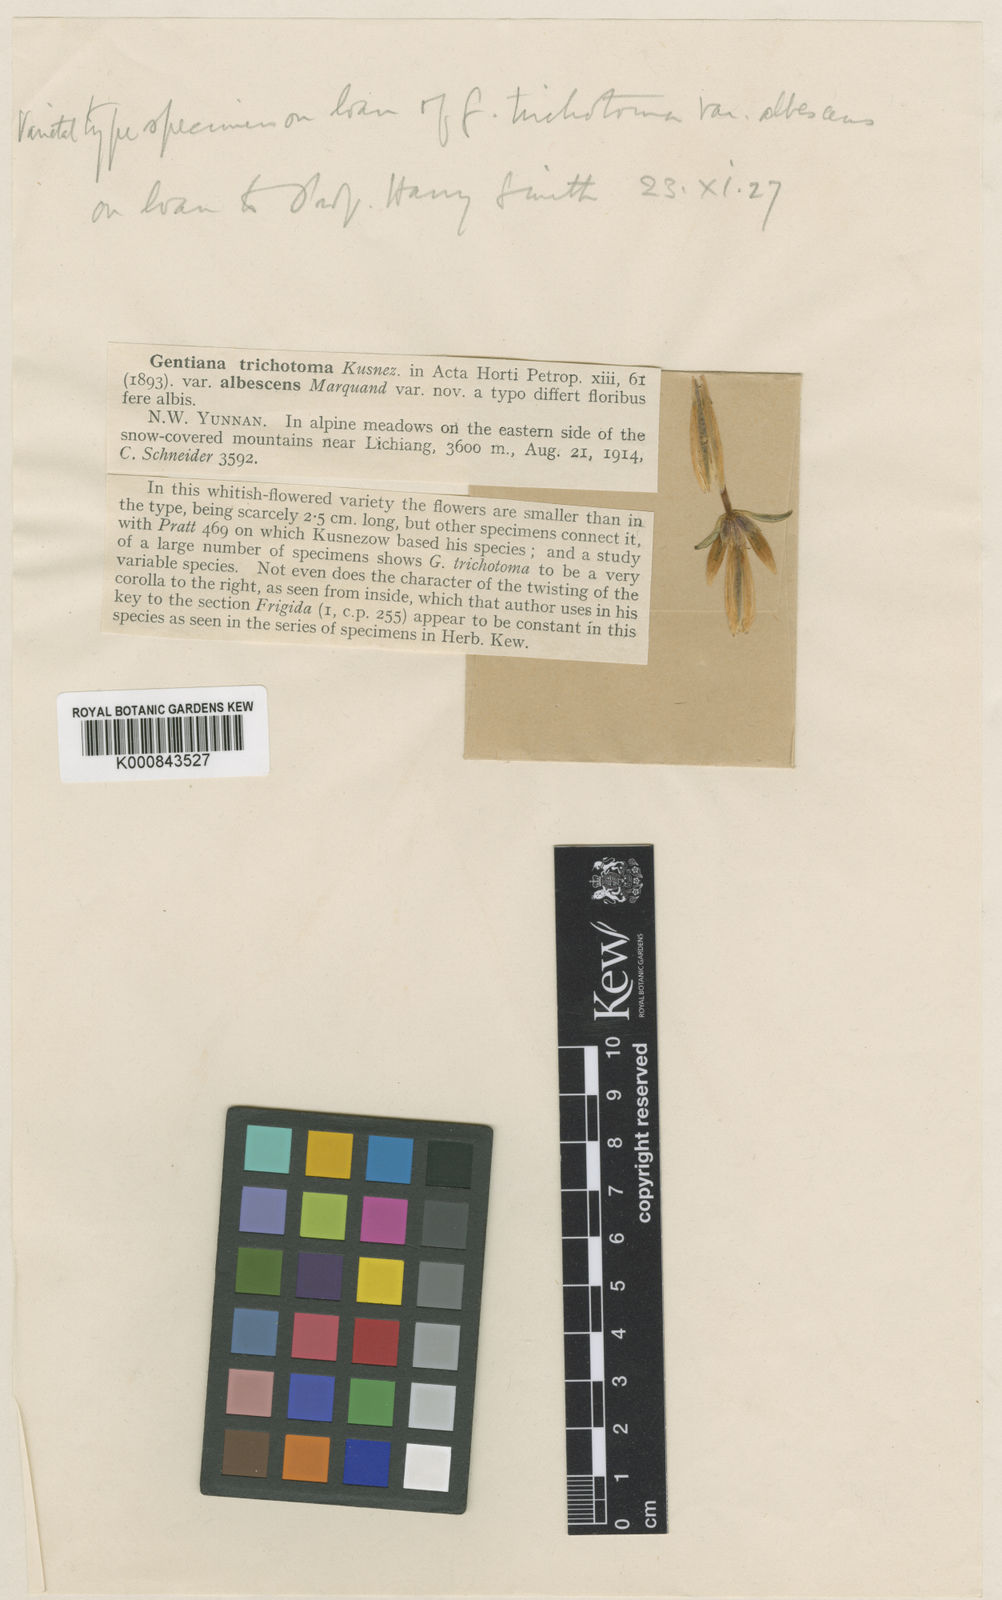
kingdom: Plantae
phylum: Tracheophyta
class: Magnoliopsida
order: Gentianales
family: Gentianaceae
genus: Gentiana
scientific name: Gentiana
